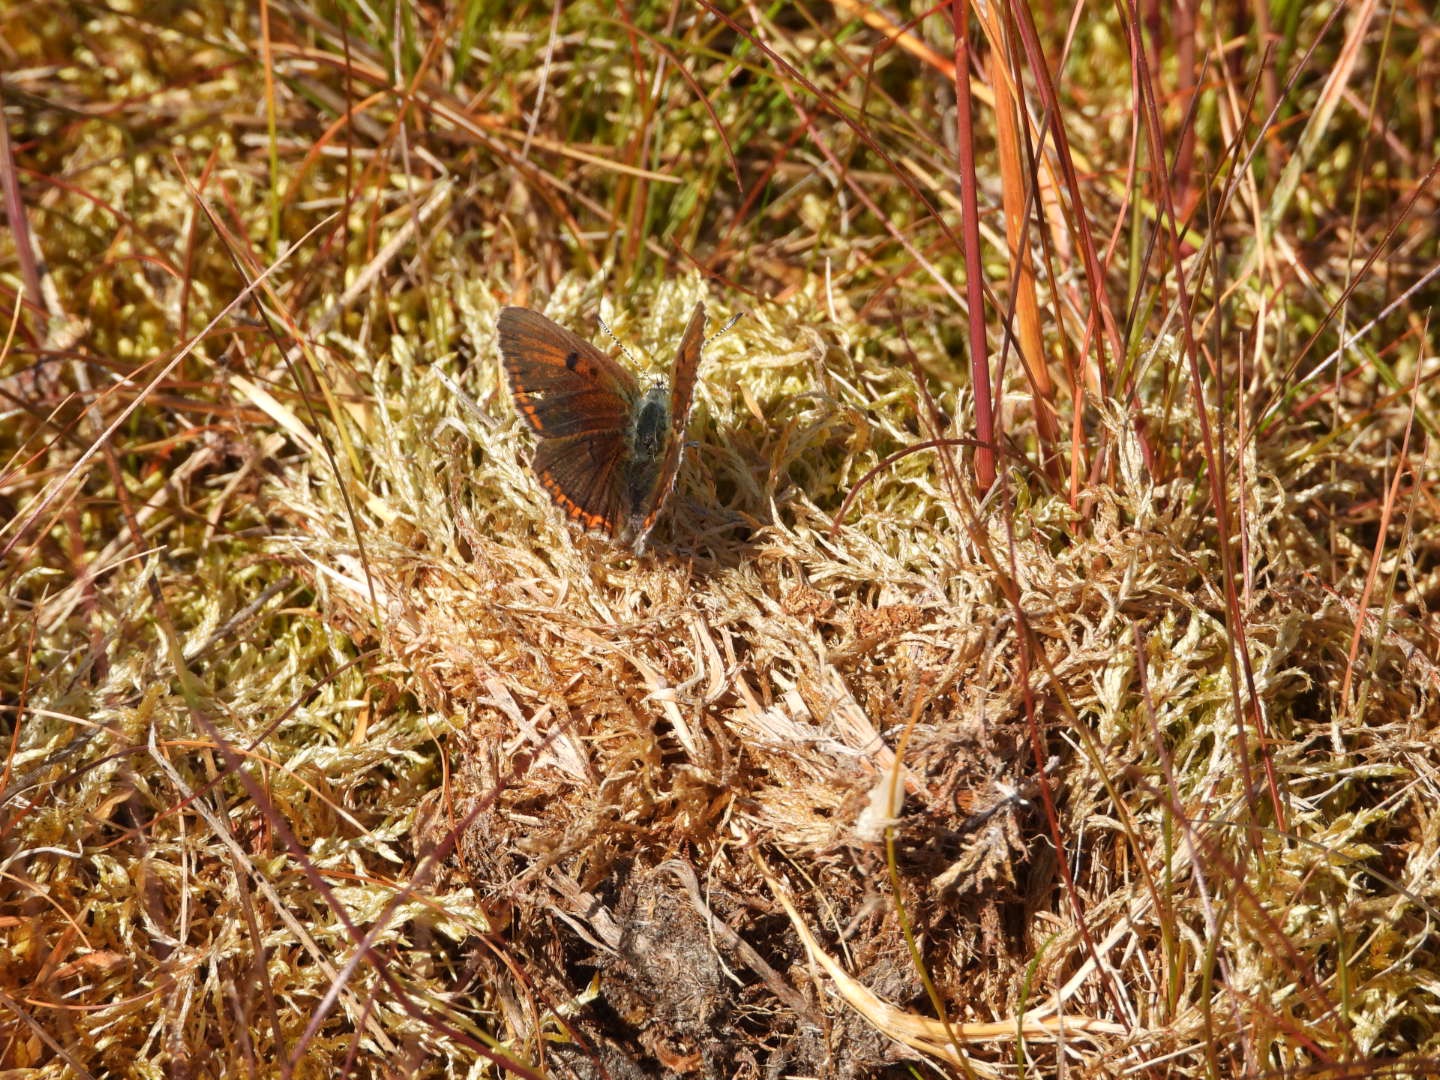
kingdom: Animalia
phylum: Arthropoda
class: Insecta
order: Lepidoptera
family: Lycaenidae
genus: Palaeochrysophanus
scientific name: Palaeochrysophanus hippothoe
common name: Violetrandet ildfugl
